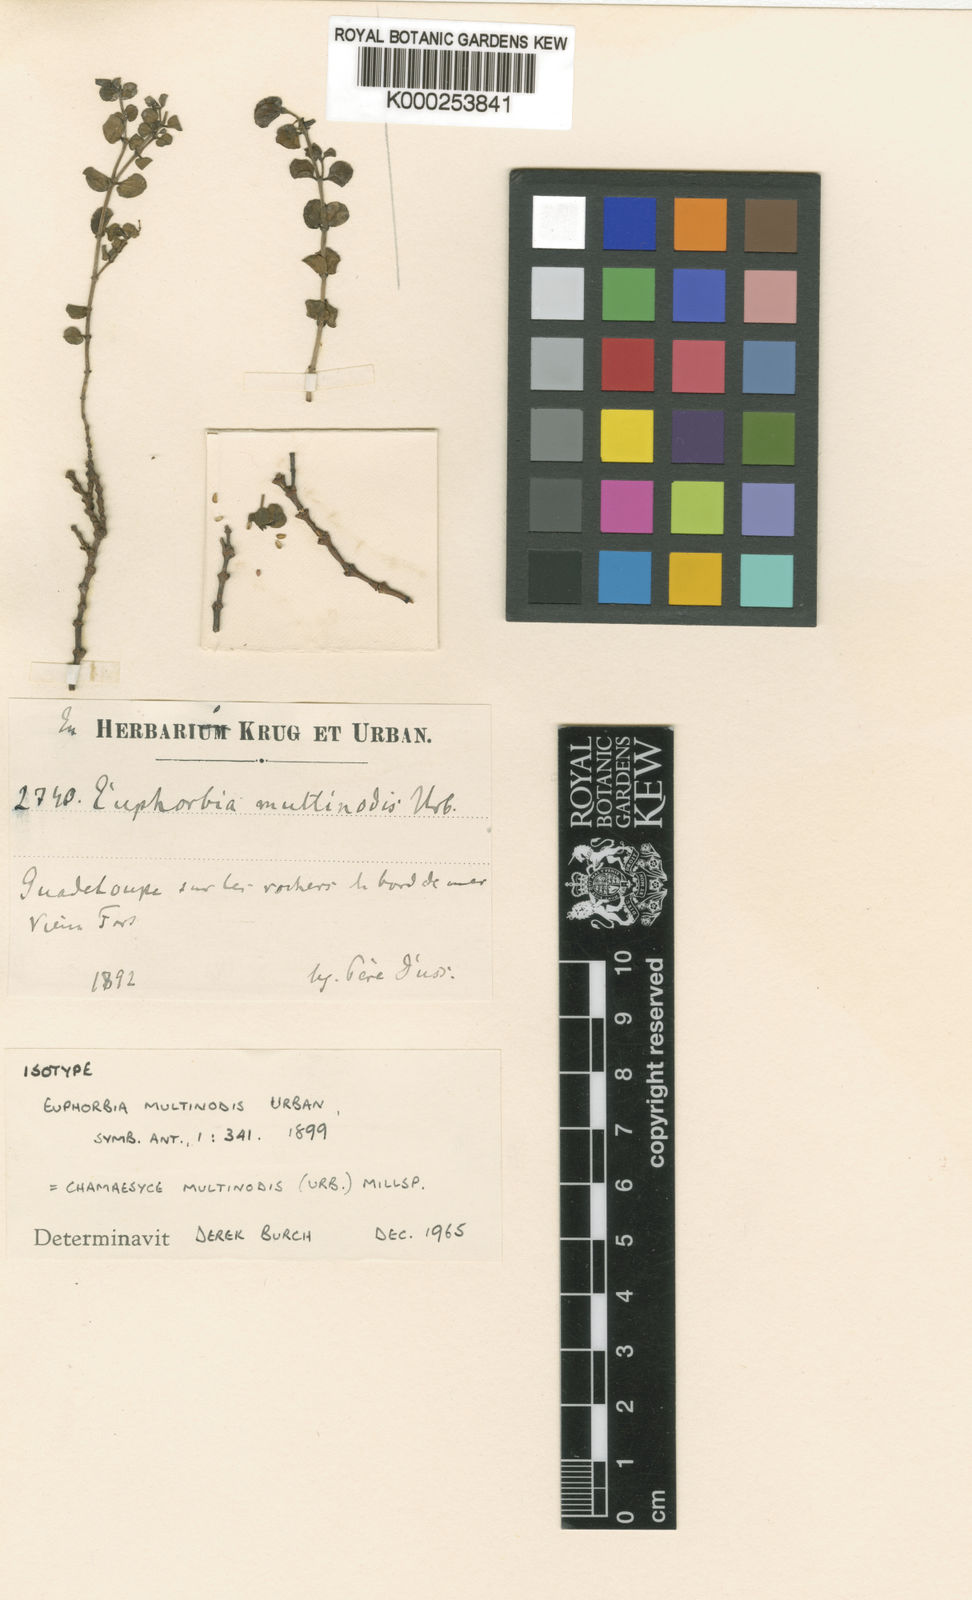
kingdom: Plantae
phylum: Tracheophyta
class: Magnoliopsida
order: Malpighiales
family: Euphorbiaceae
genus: Euphorbia
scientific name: Euphorbia multinodis
